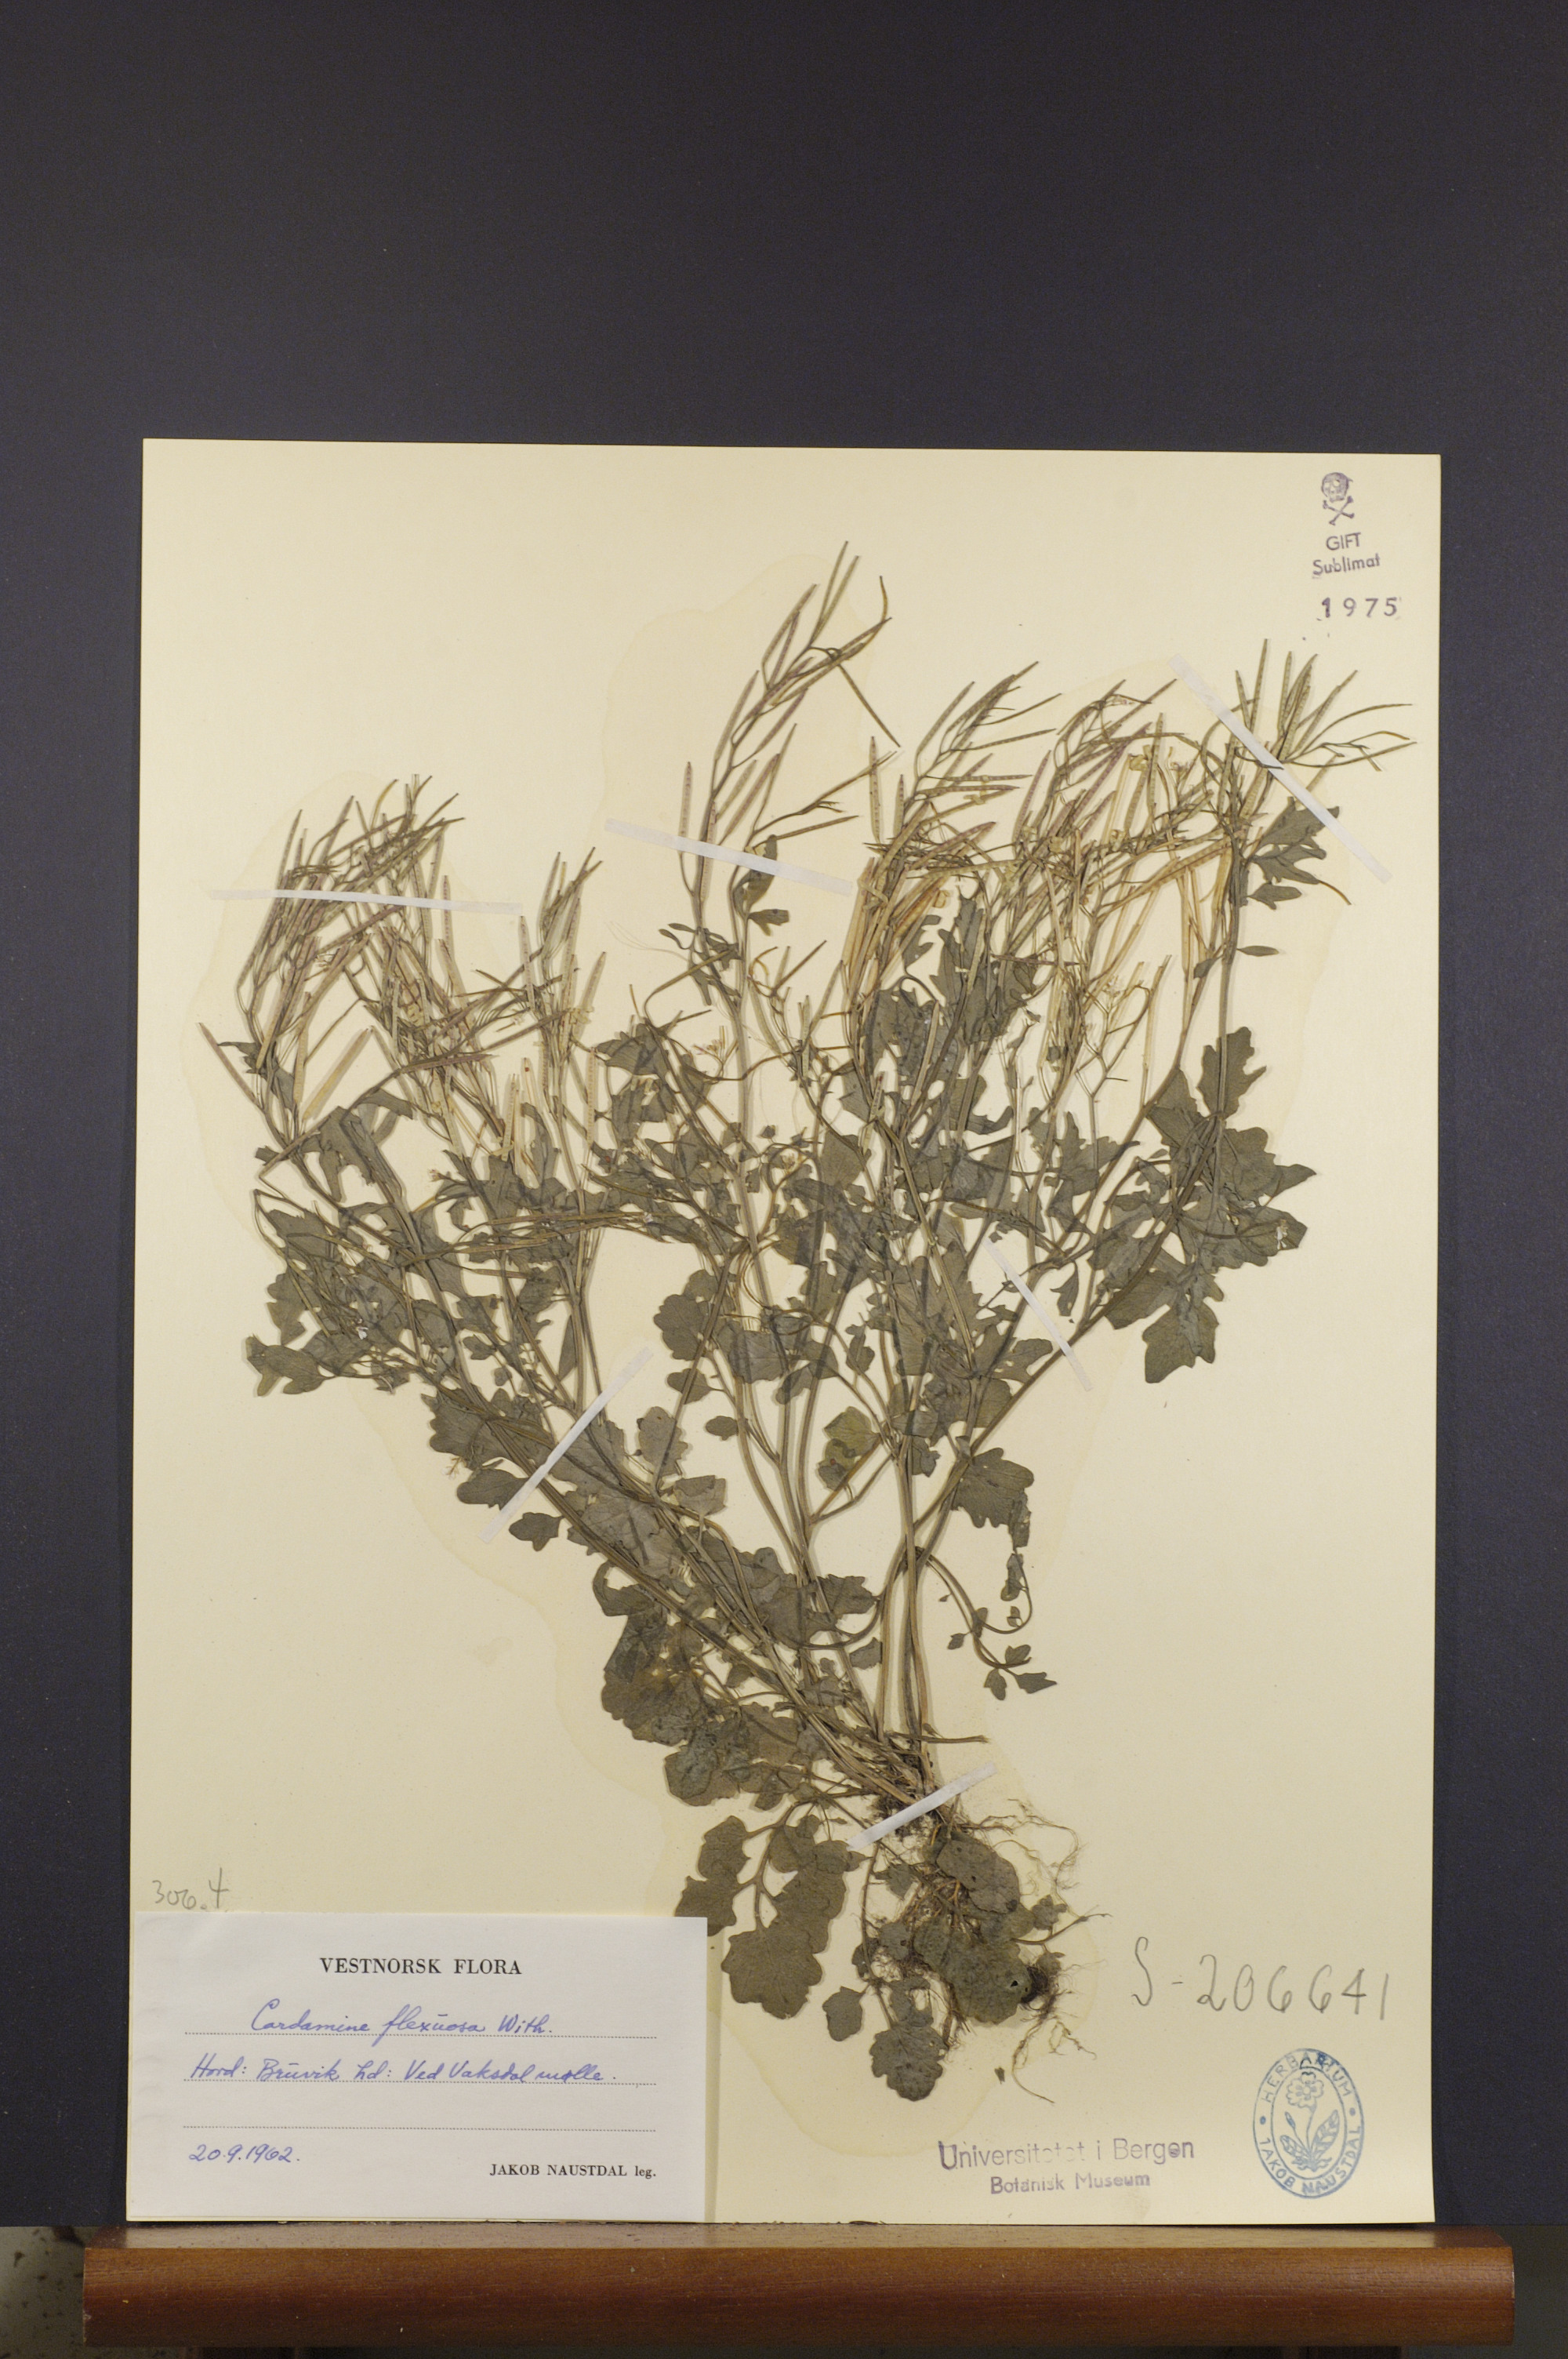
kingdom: Plantae
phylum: Tracheophyta
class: Magnoliopsida
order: Brassicales
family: Brassicaceae
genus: Cardamine
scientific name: Cardamine flexuosa
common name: Woodland bittercress
